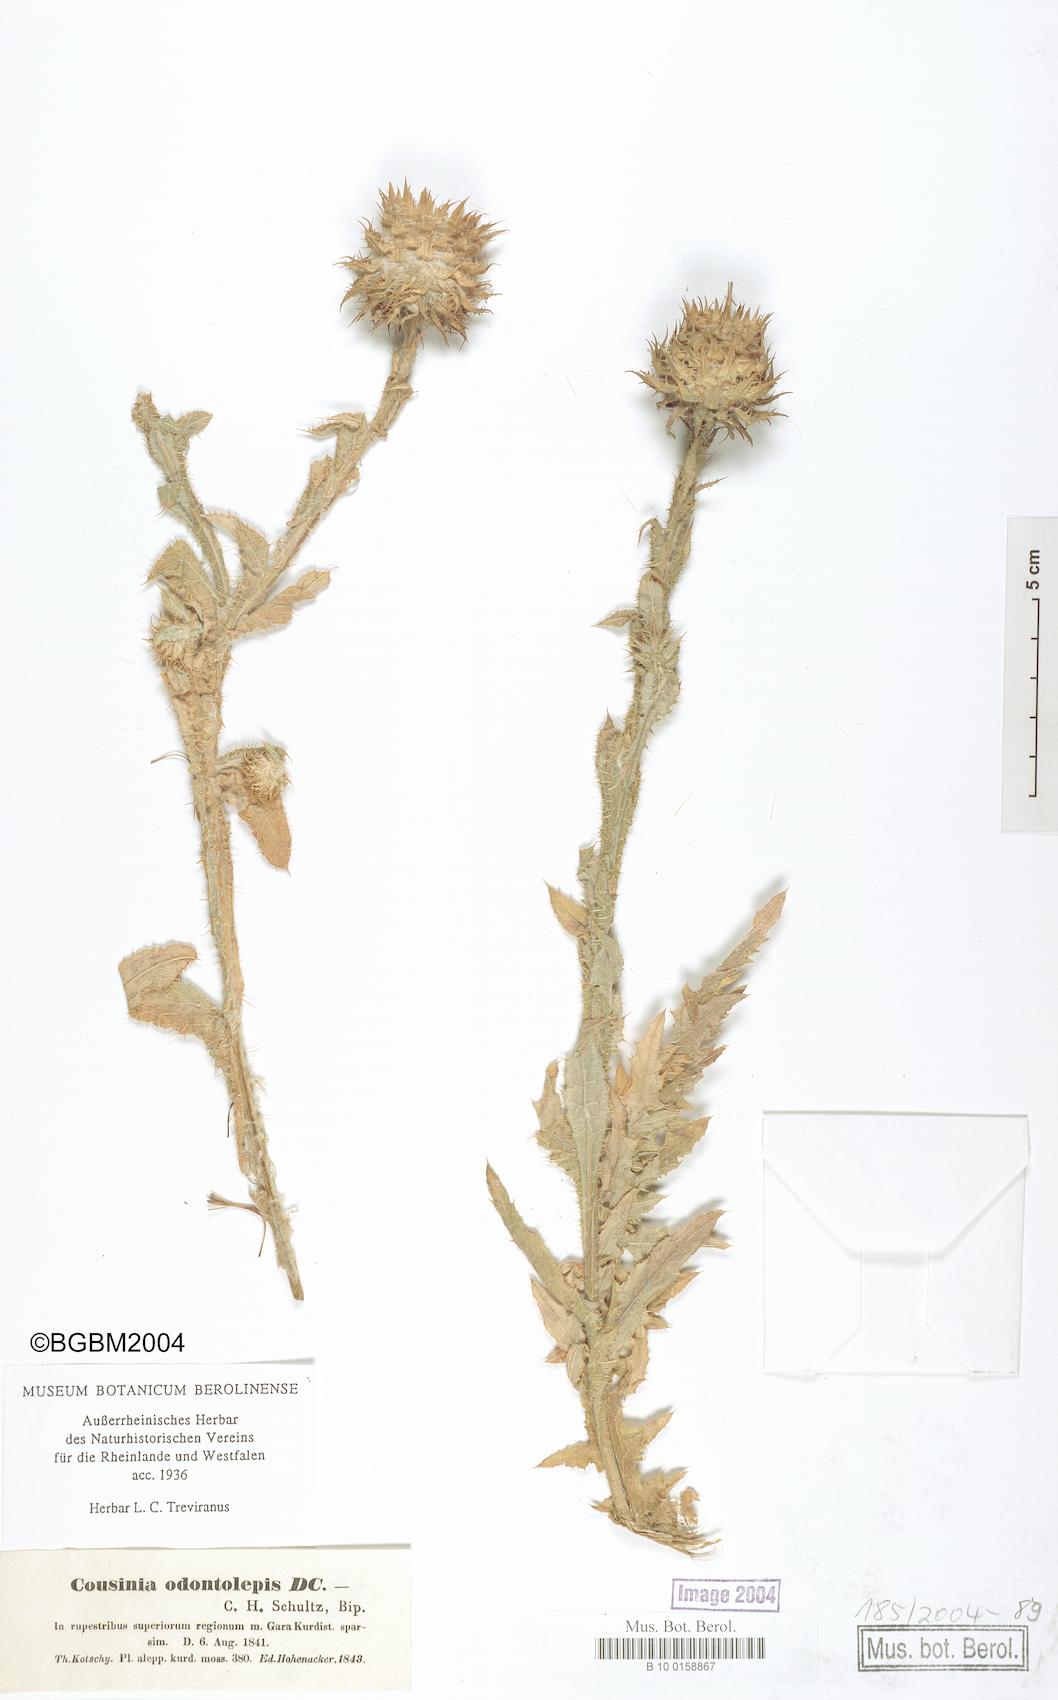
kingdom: Plantae
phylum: Tracheophyta
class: Magnoliopsida
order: Asterales
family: Asteraceae
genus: Cousinia
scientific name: Cousinia odontolepis
